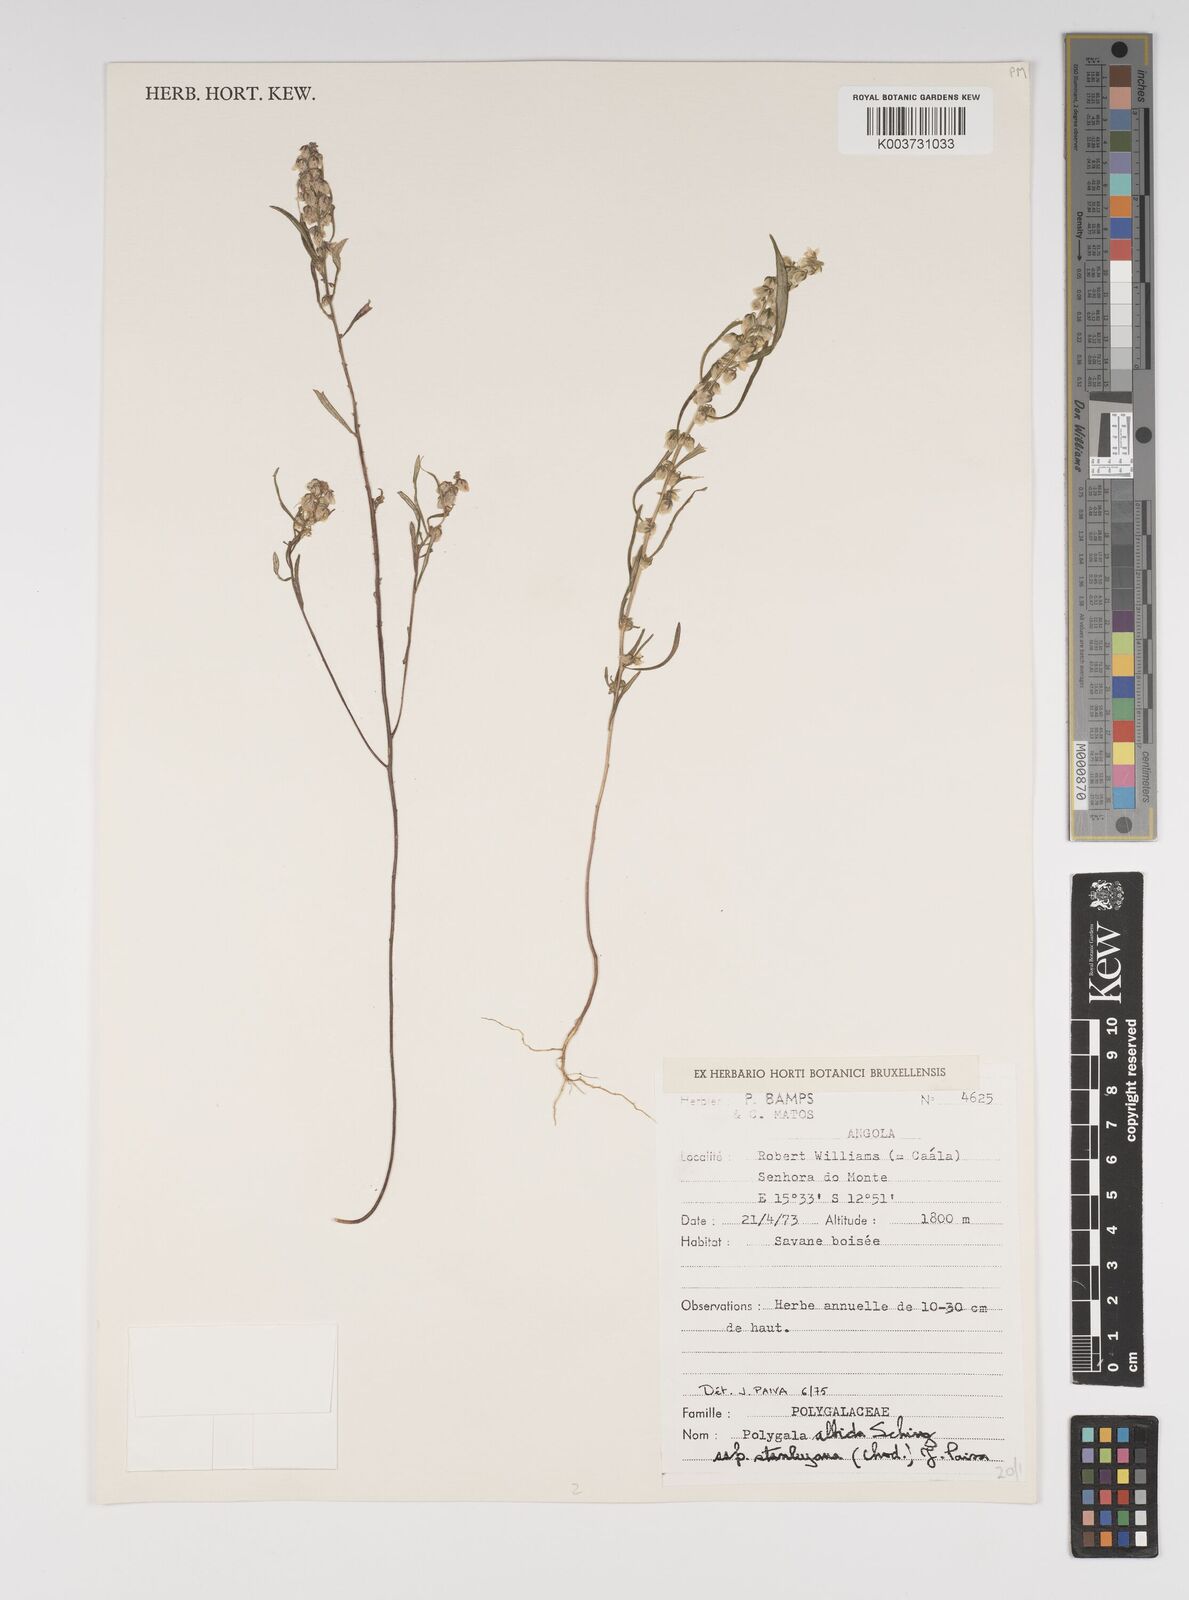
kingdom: Plantae
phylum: Tracheophyta
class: Magnoliopsida
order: Fabales
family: Polygalaceae
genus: Polygala
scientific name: Polygala albida
